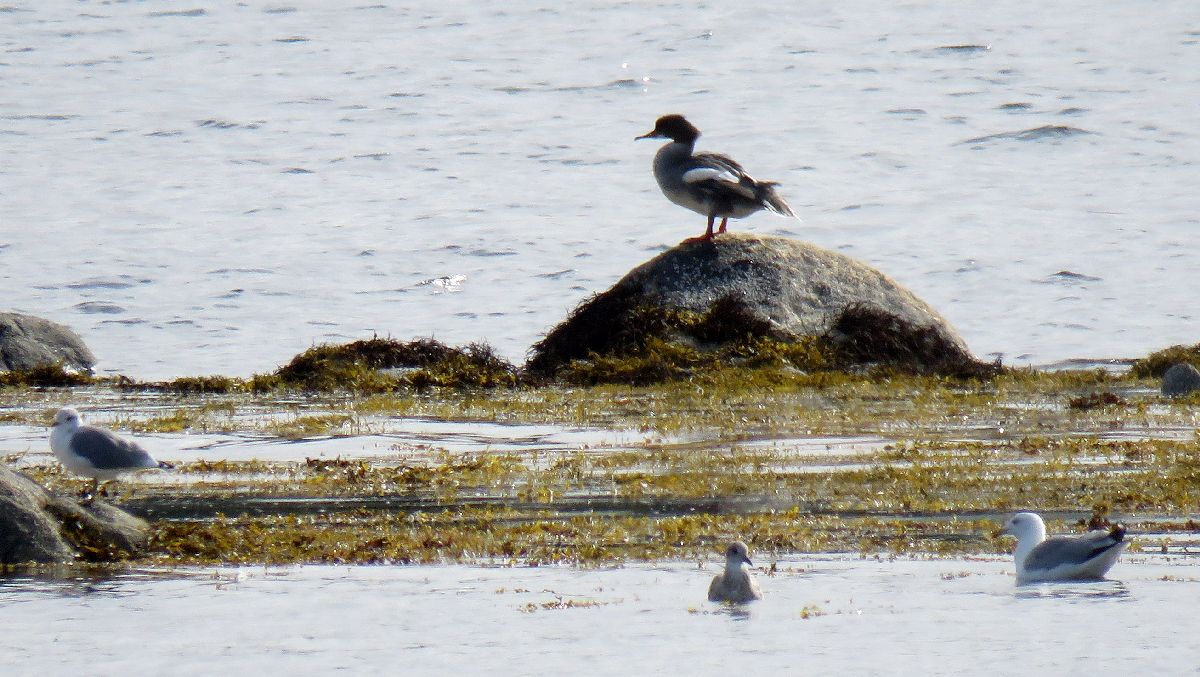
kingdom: Animalia
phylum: Chordata
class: Aves
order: Anseriformes
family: Anatidae
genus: Mergus
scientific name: Mergus merganser
